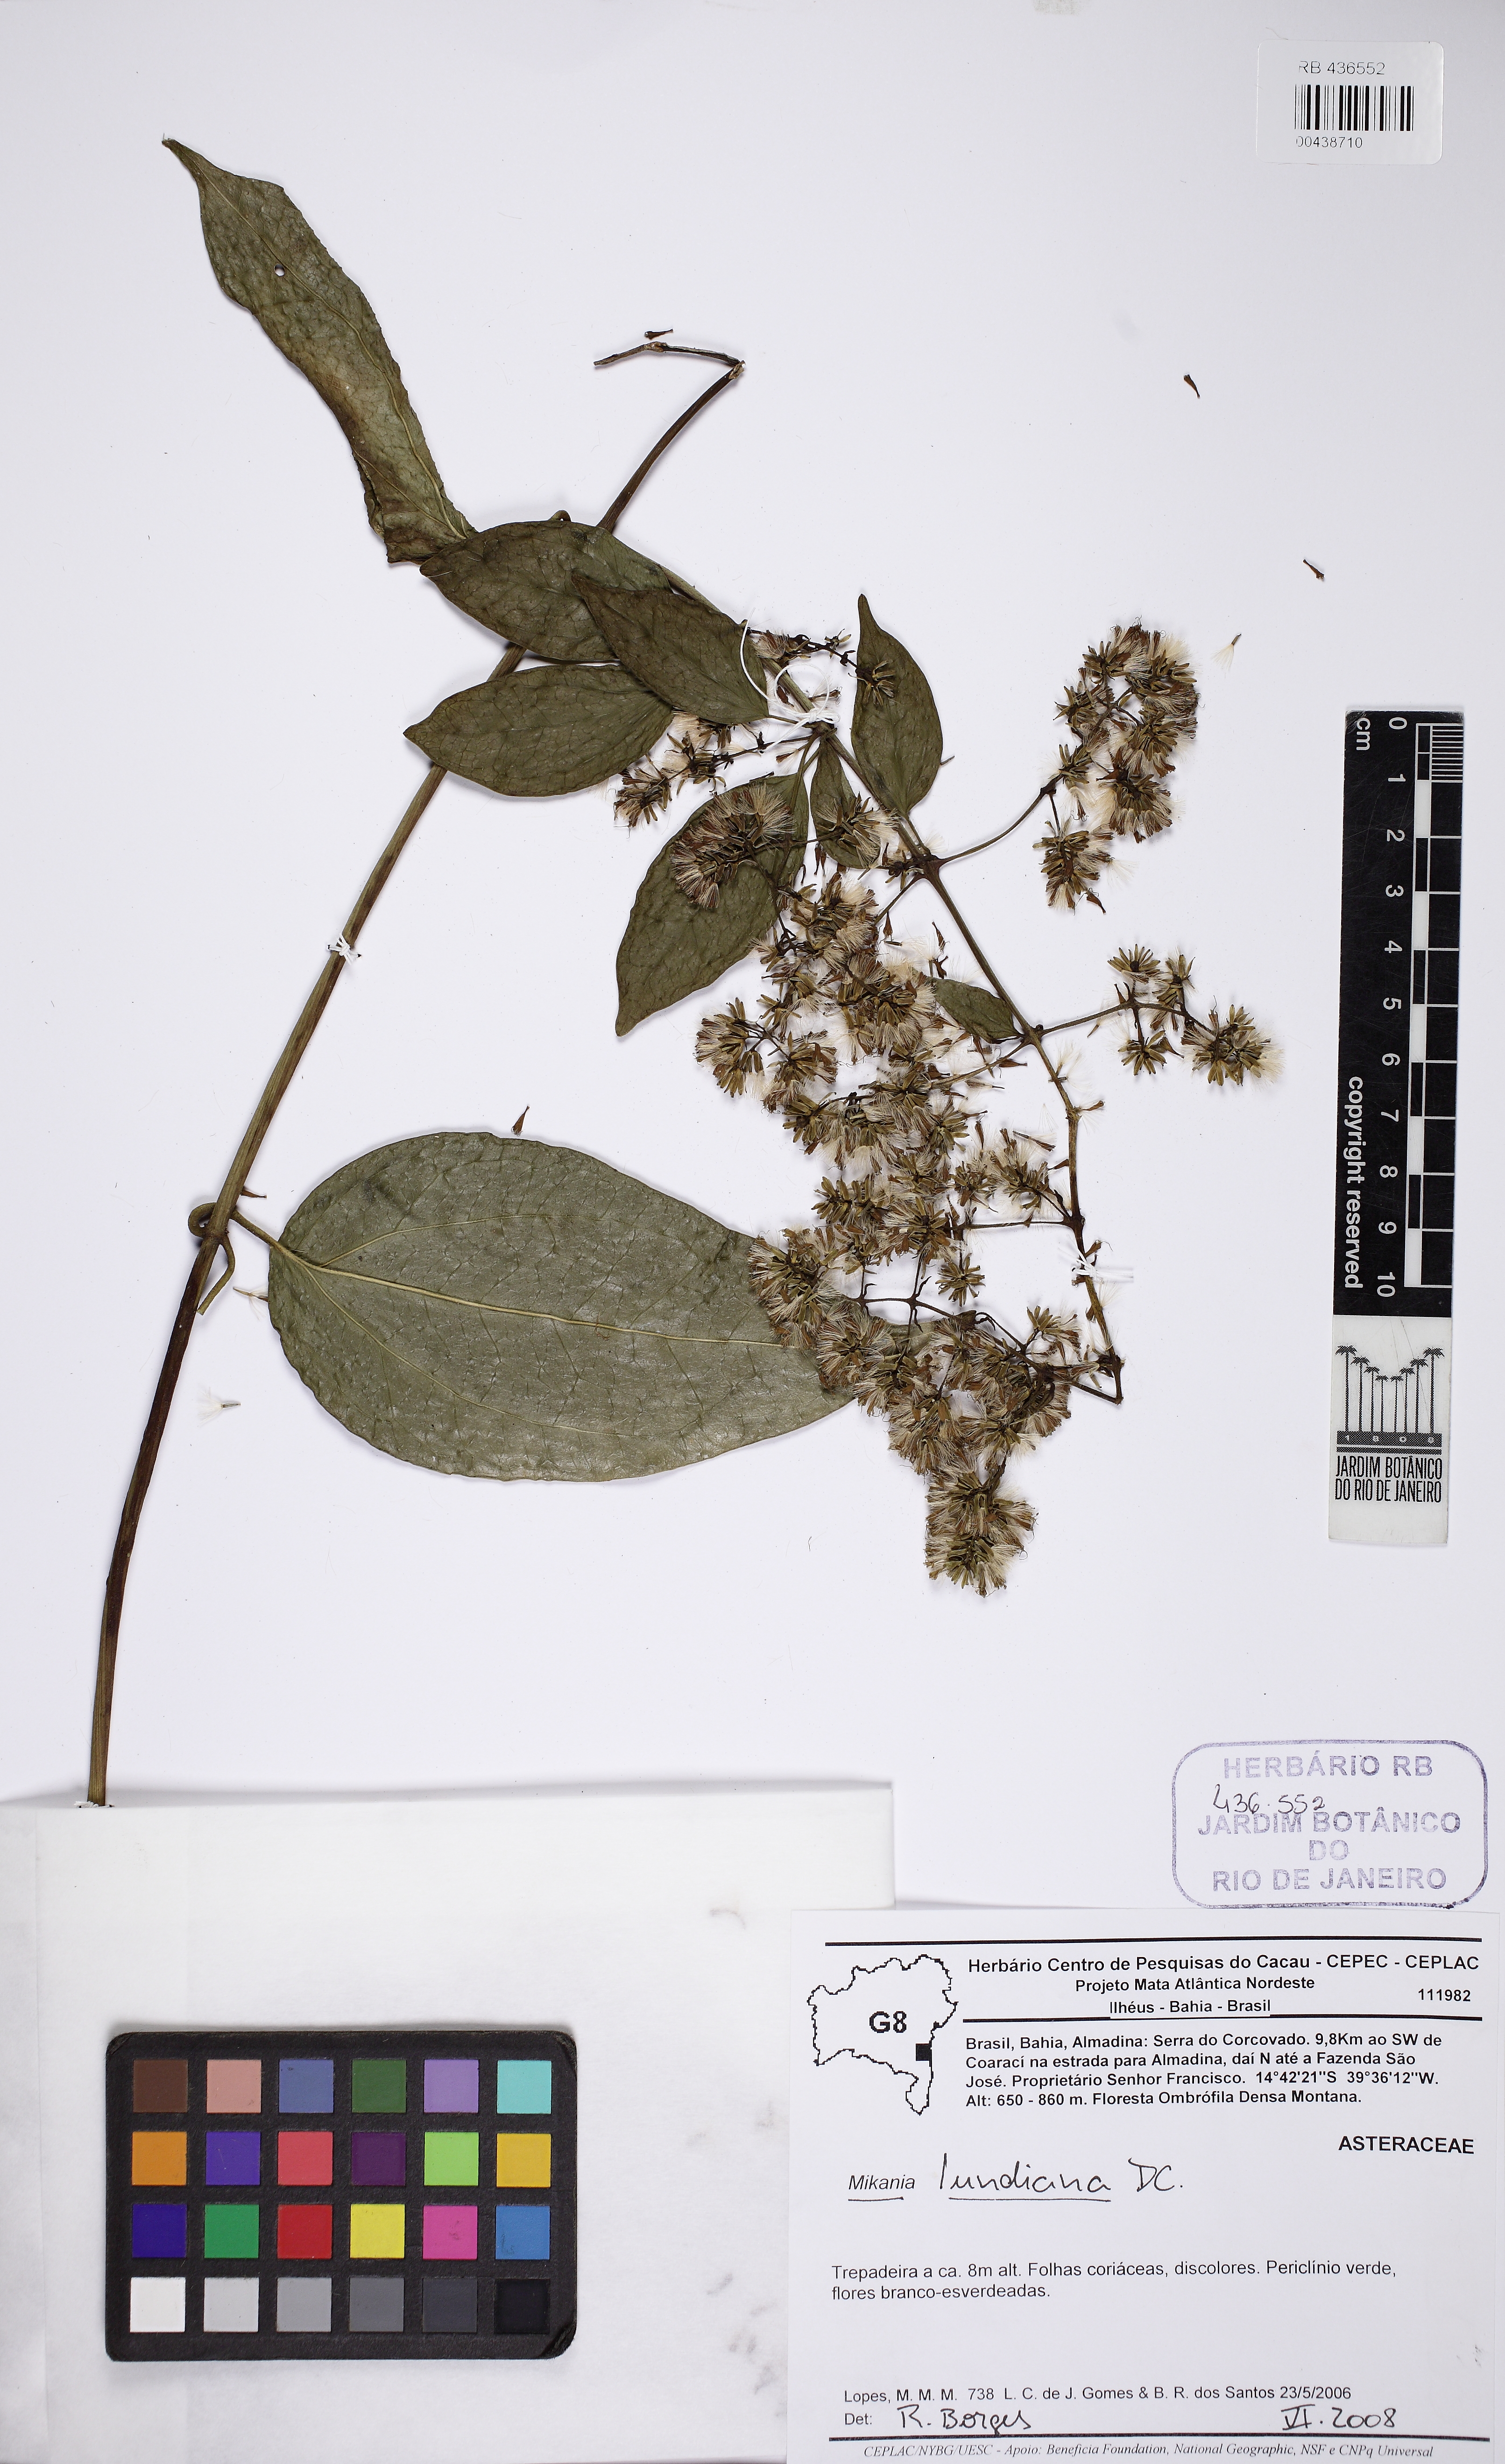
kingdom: Plantae
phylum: Tracheophyta
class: Magnoliopsida
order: Asterales
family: Asteraceae
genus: Mikania
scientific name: Mikania lundiana
